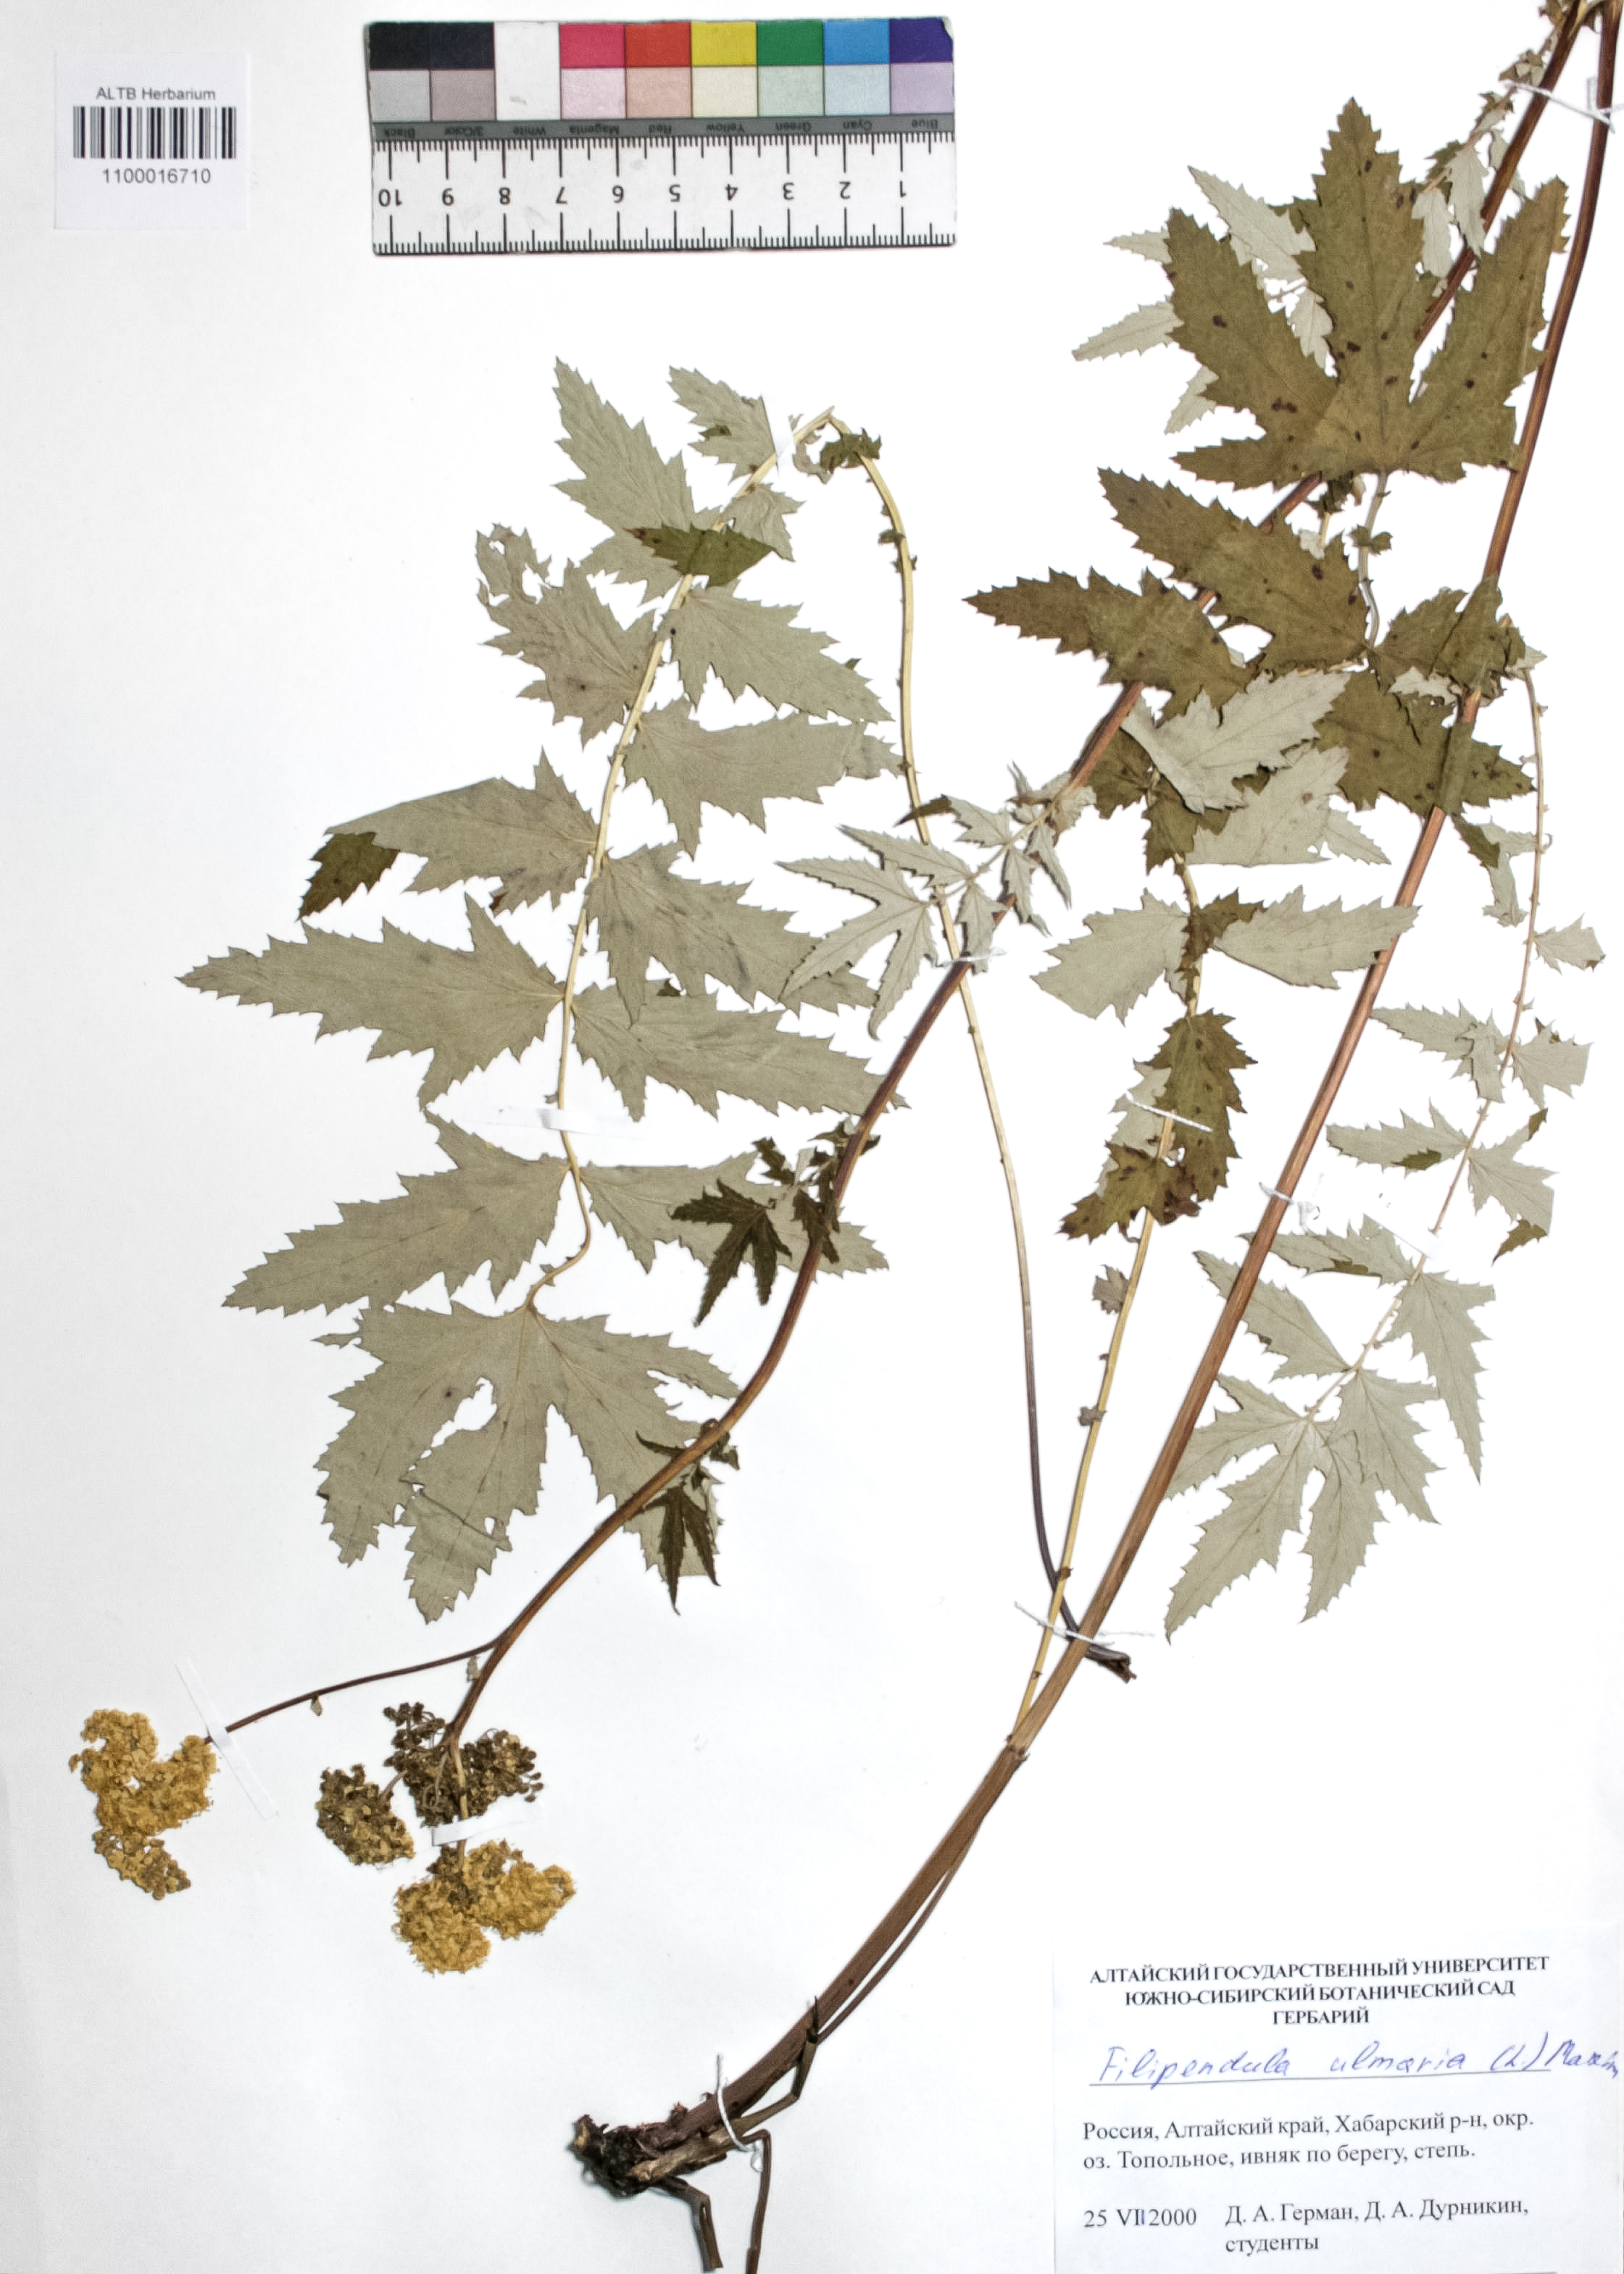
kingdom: Plantae
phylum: Tracheophyta
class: Magnoliopsida
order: Rosales
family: Rosaceae
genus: Filipendula
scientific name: Filipendula ulmaria
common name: Meadowsweet
